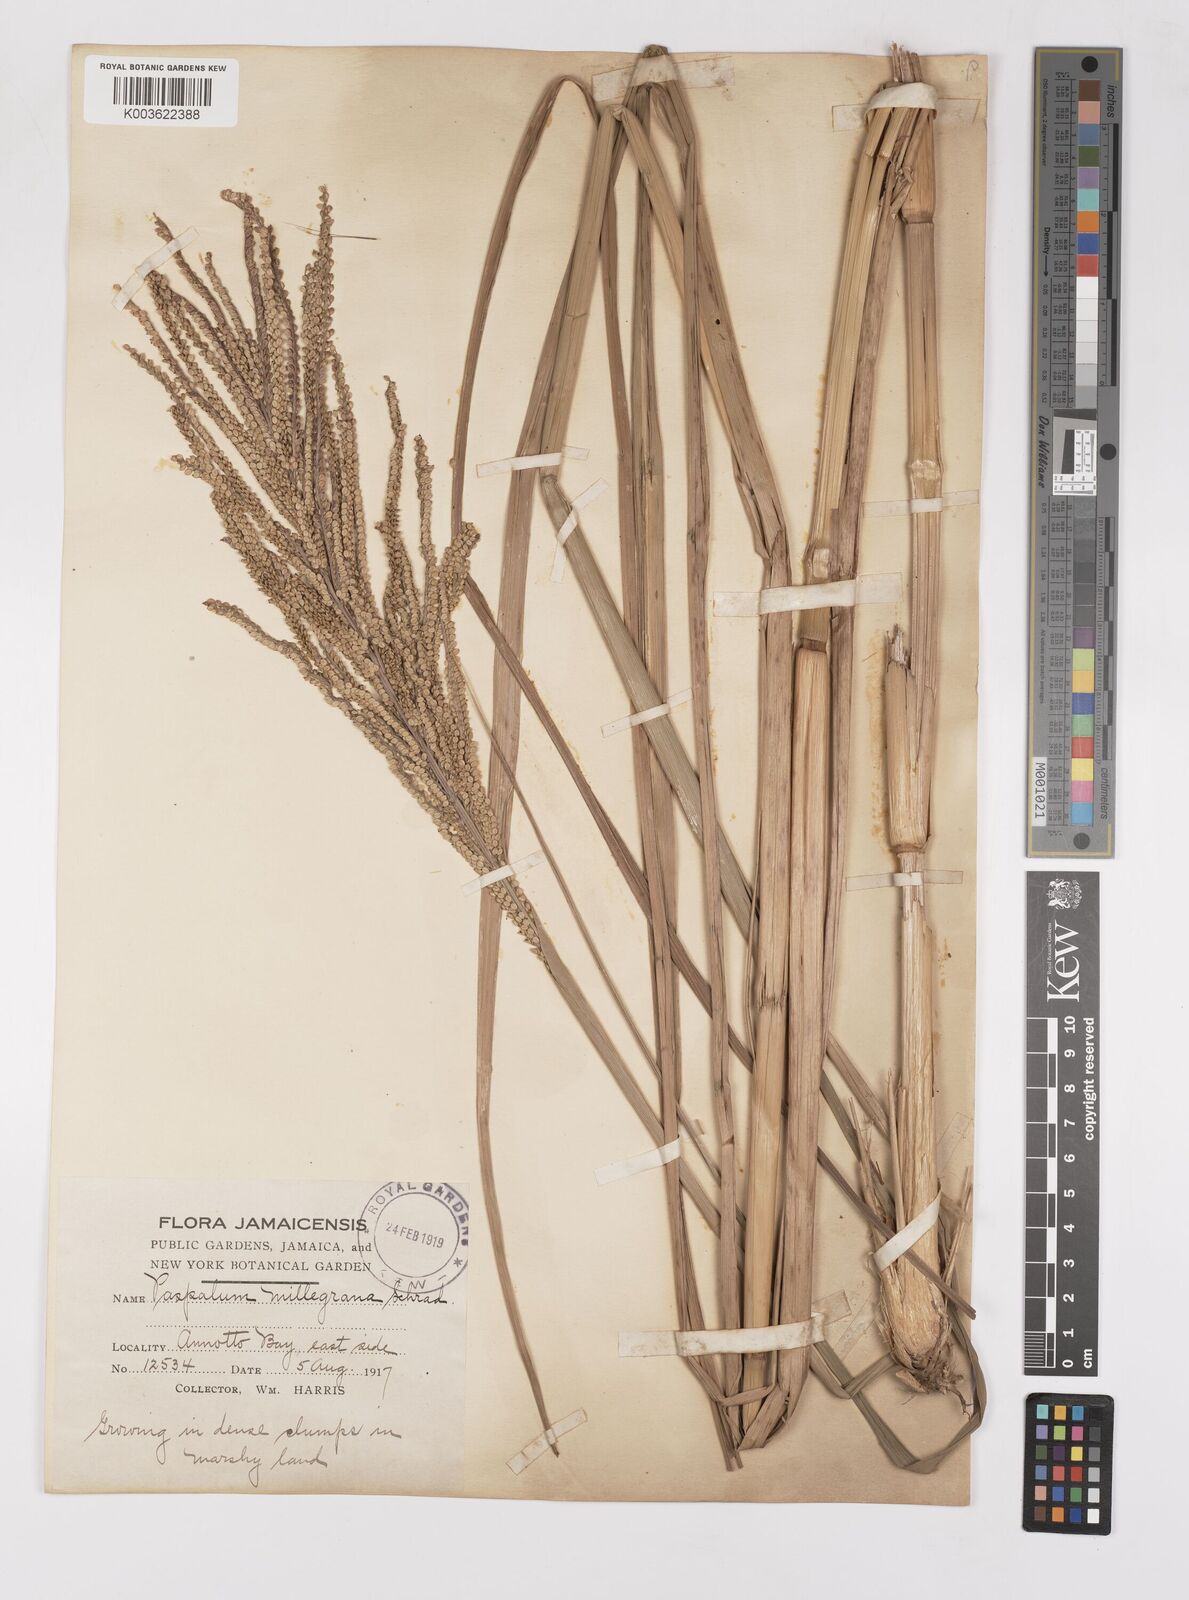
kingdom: Plantae
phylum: Tracheophyta
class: Liliopsida
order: Poales
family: Poaceae
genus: Paspalum
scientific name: Paspalum millegranum
